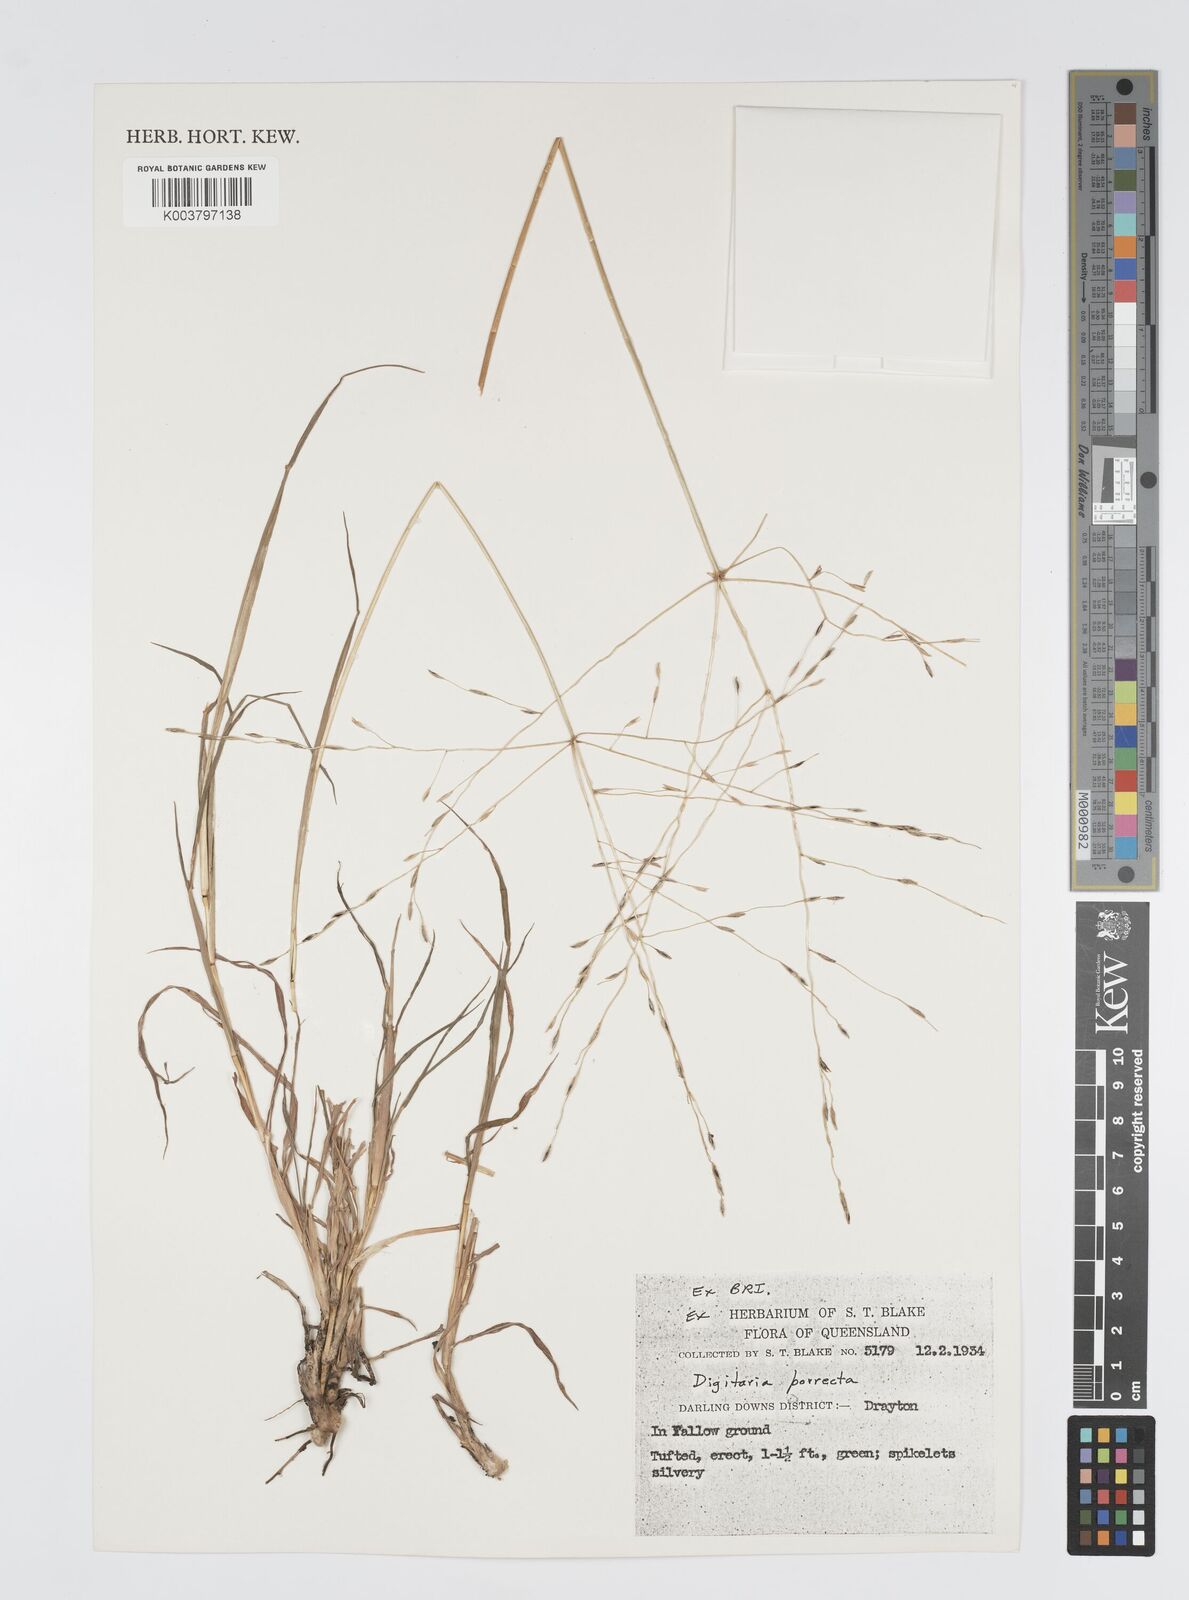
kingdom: Plantae
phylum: Tracheophyta
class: Liliopsida
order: Poales
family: Poaceae
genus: Digitaria
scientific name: Digitaria porrecta
